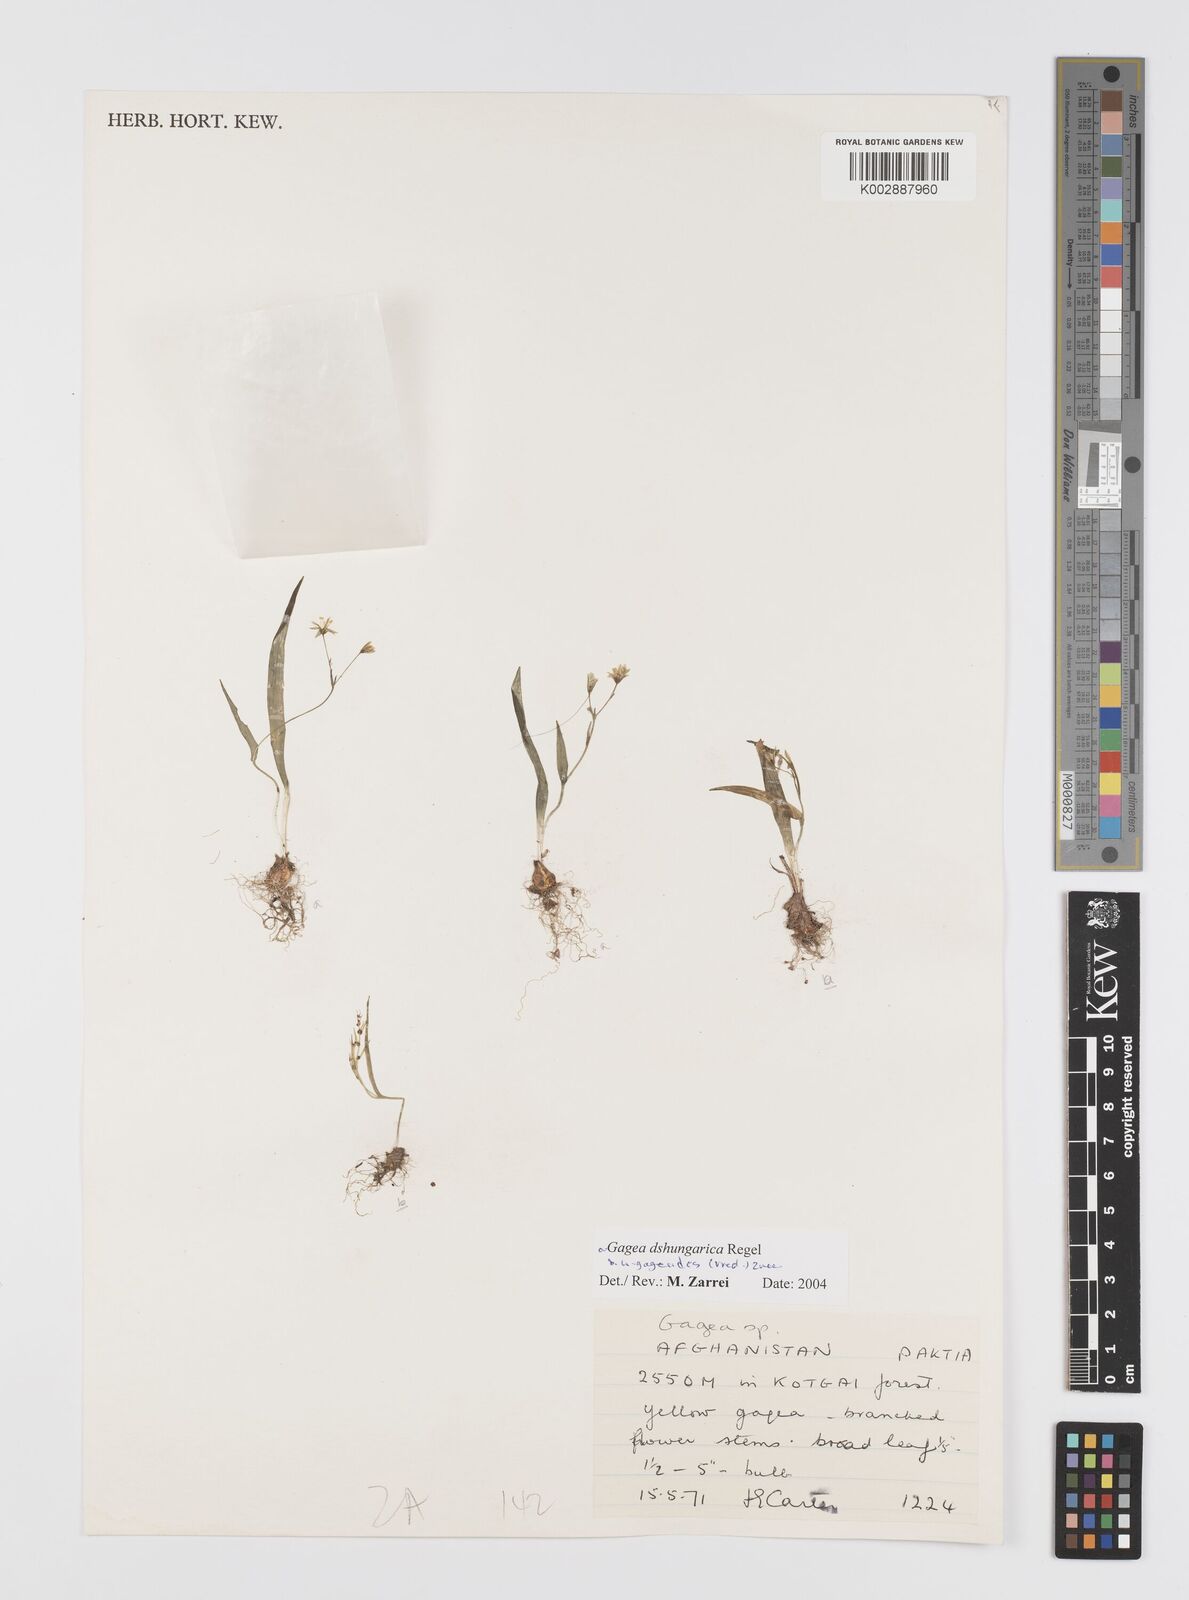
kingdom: Plantae
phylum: Tracheophyta
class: Liliopsida
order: Liliales
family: Liliaceae
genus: Gagea
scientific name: Gagea dschungarica
